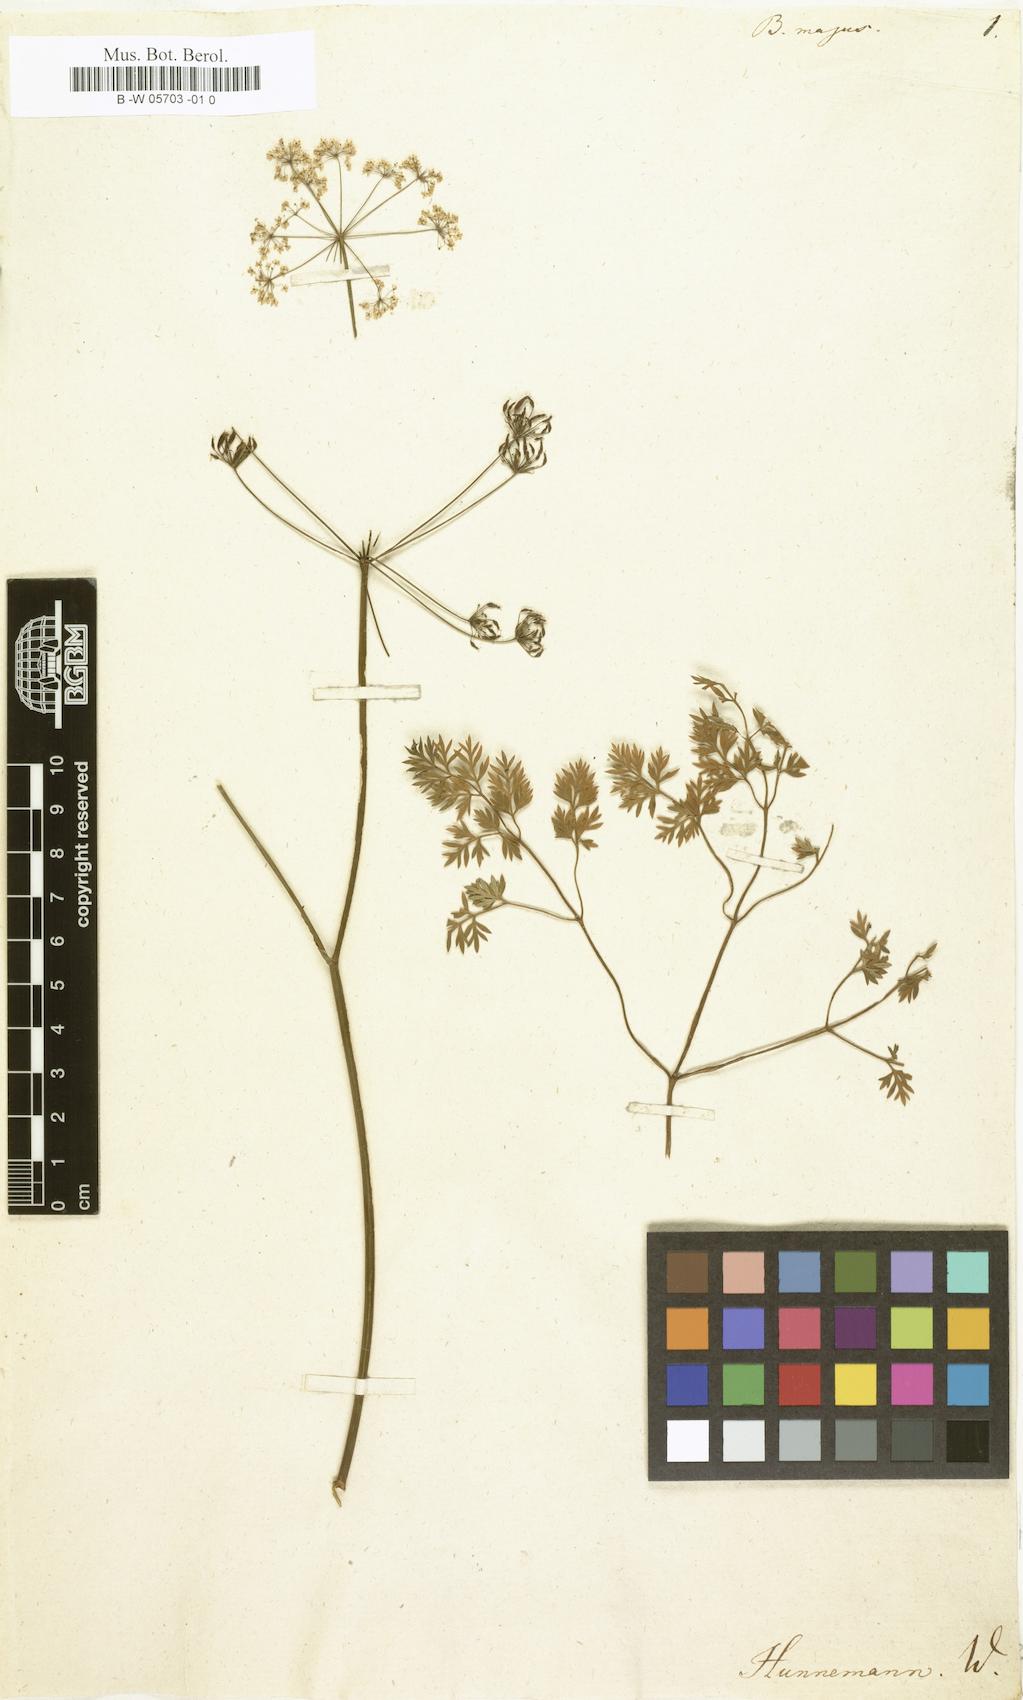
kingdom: Plantae
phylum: Tracheophyta
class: Magnoliopsida
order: Apiales
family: Apiaceae
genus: Bunium
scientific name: Bunium majus
